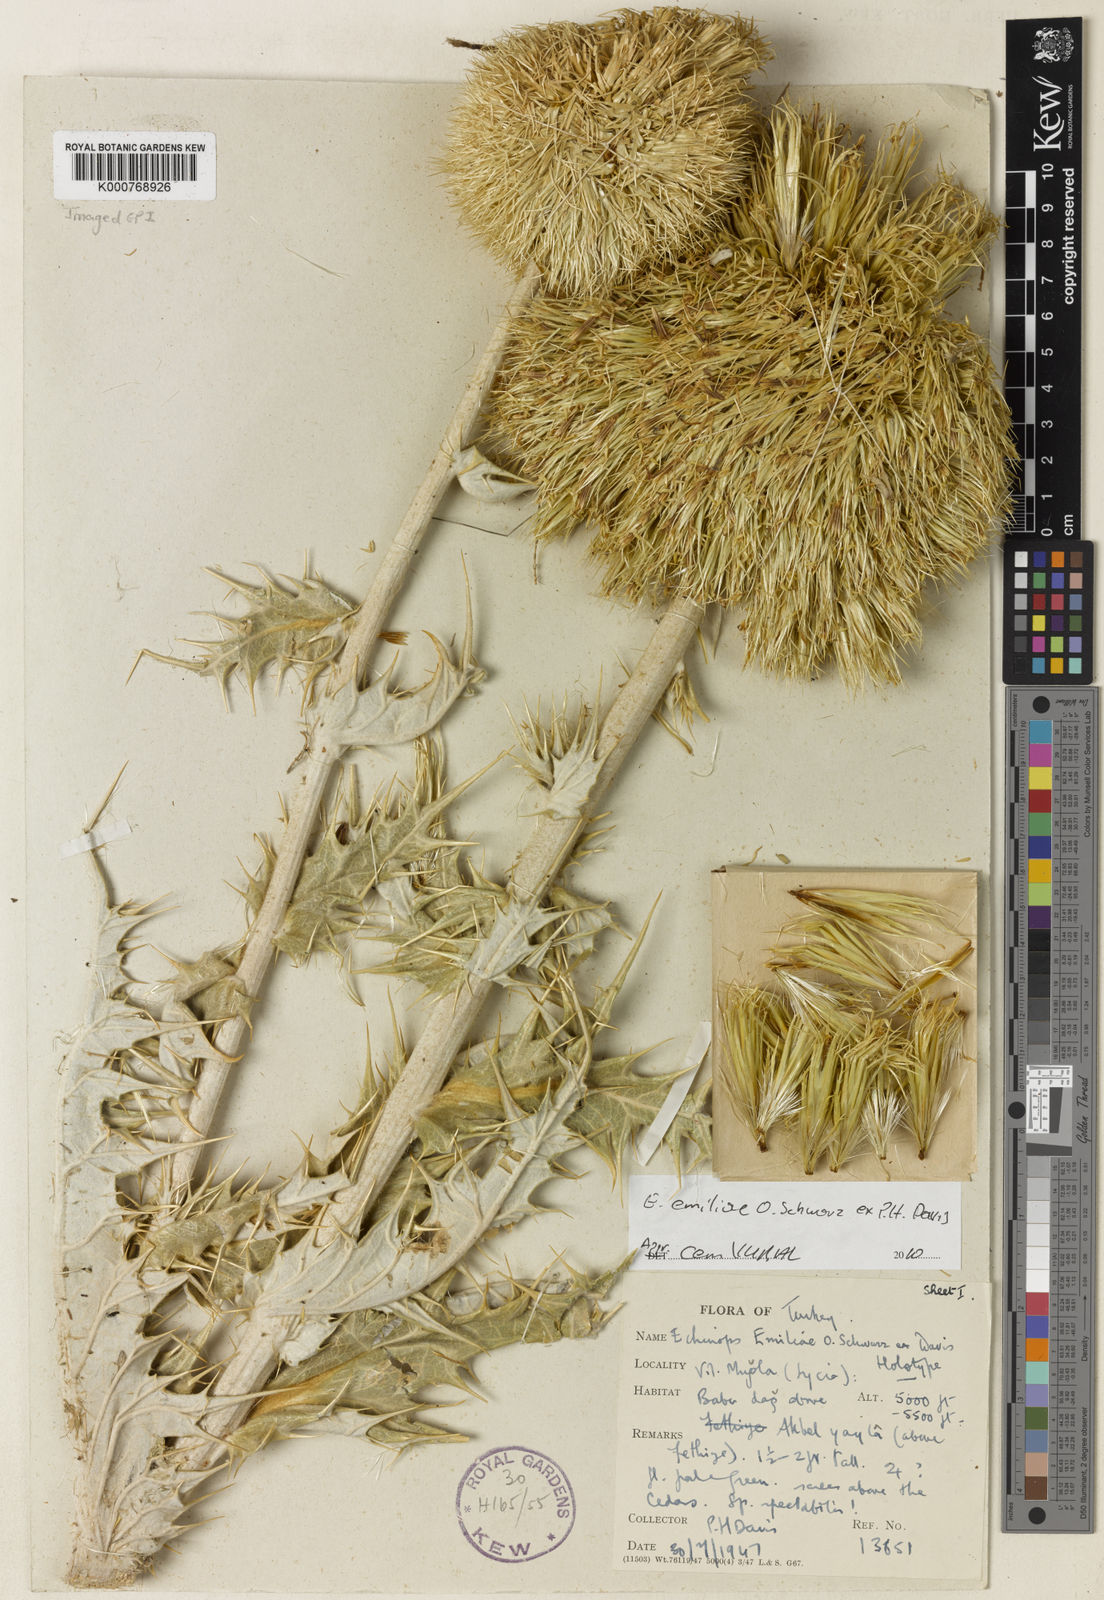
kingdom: Plantae
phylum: Tracheophyta
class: Magnoliopsida
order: Asterales
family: Asteraceae
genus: Echinops
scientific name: Echinops emiliae
